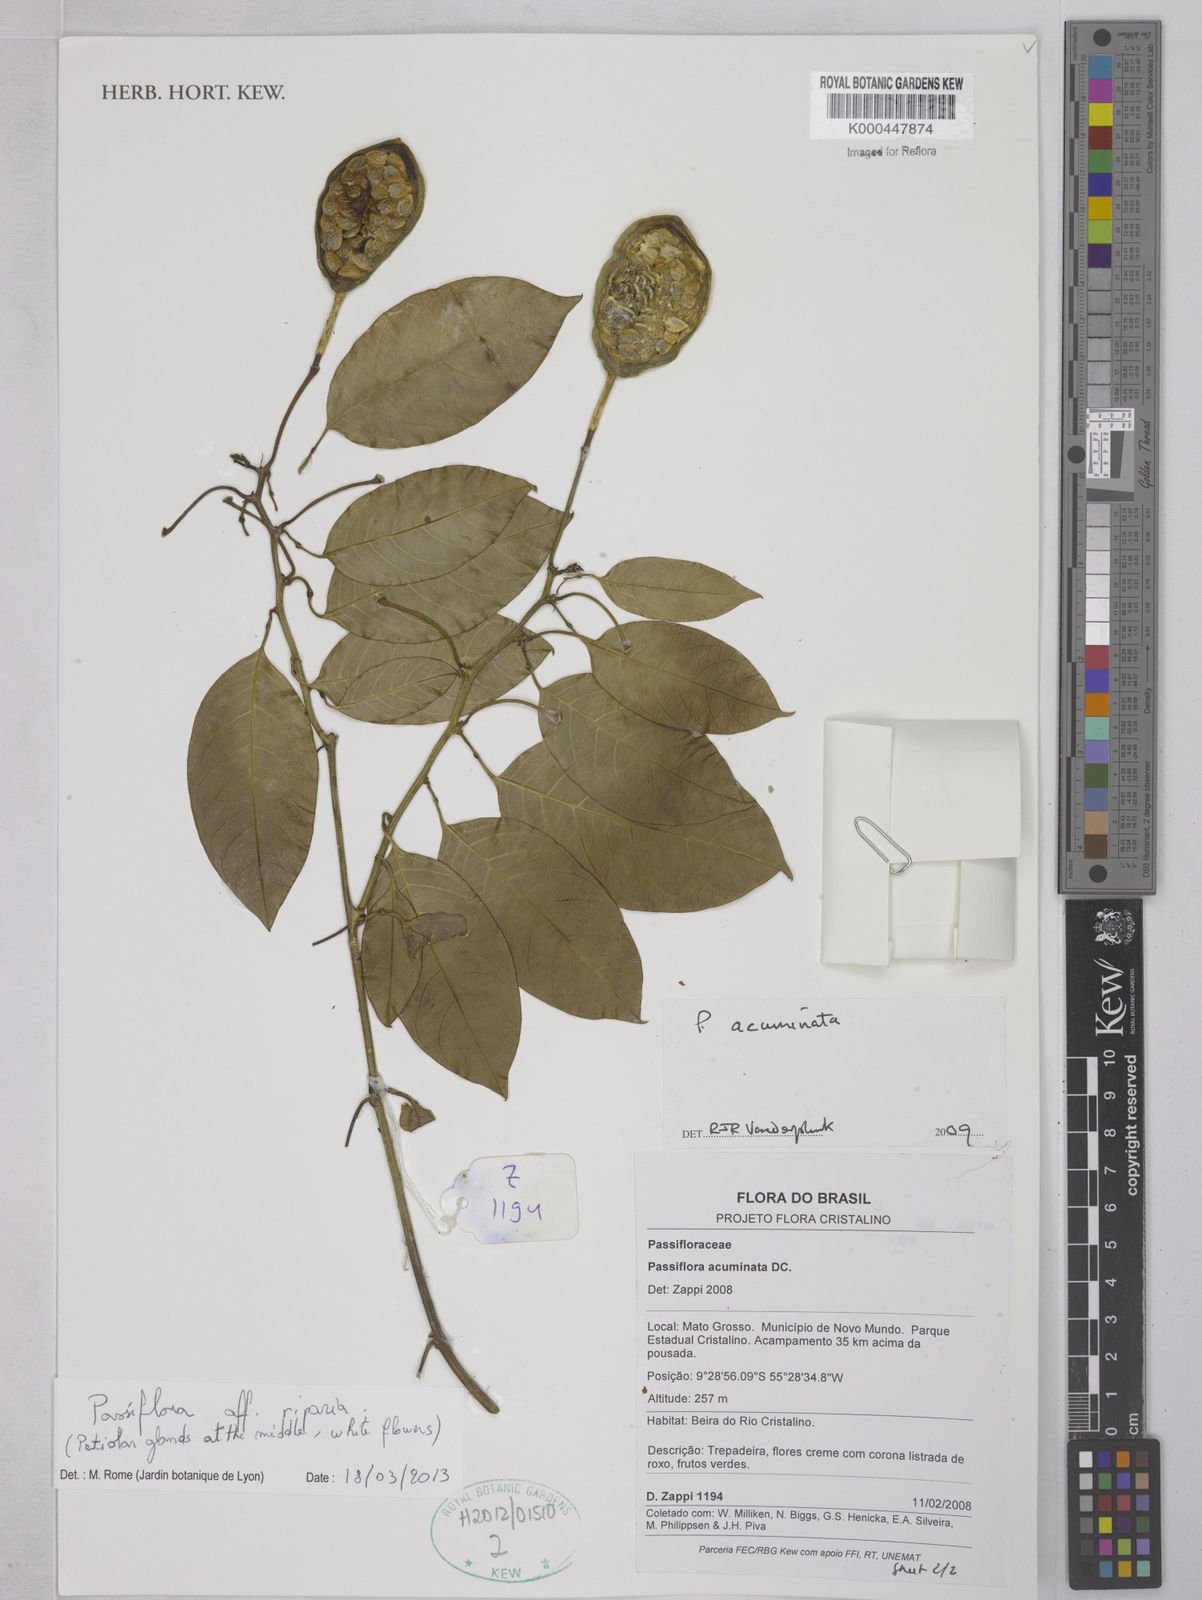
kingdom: Plantae
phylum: Tracheophyta
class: Magnoliopsida
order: Malpighiales
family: Passifloraceae
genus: Passiflora
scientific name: Passiflora acuminata
